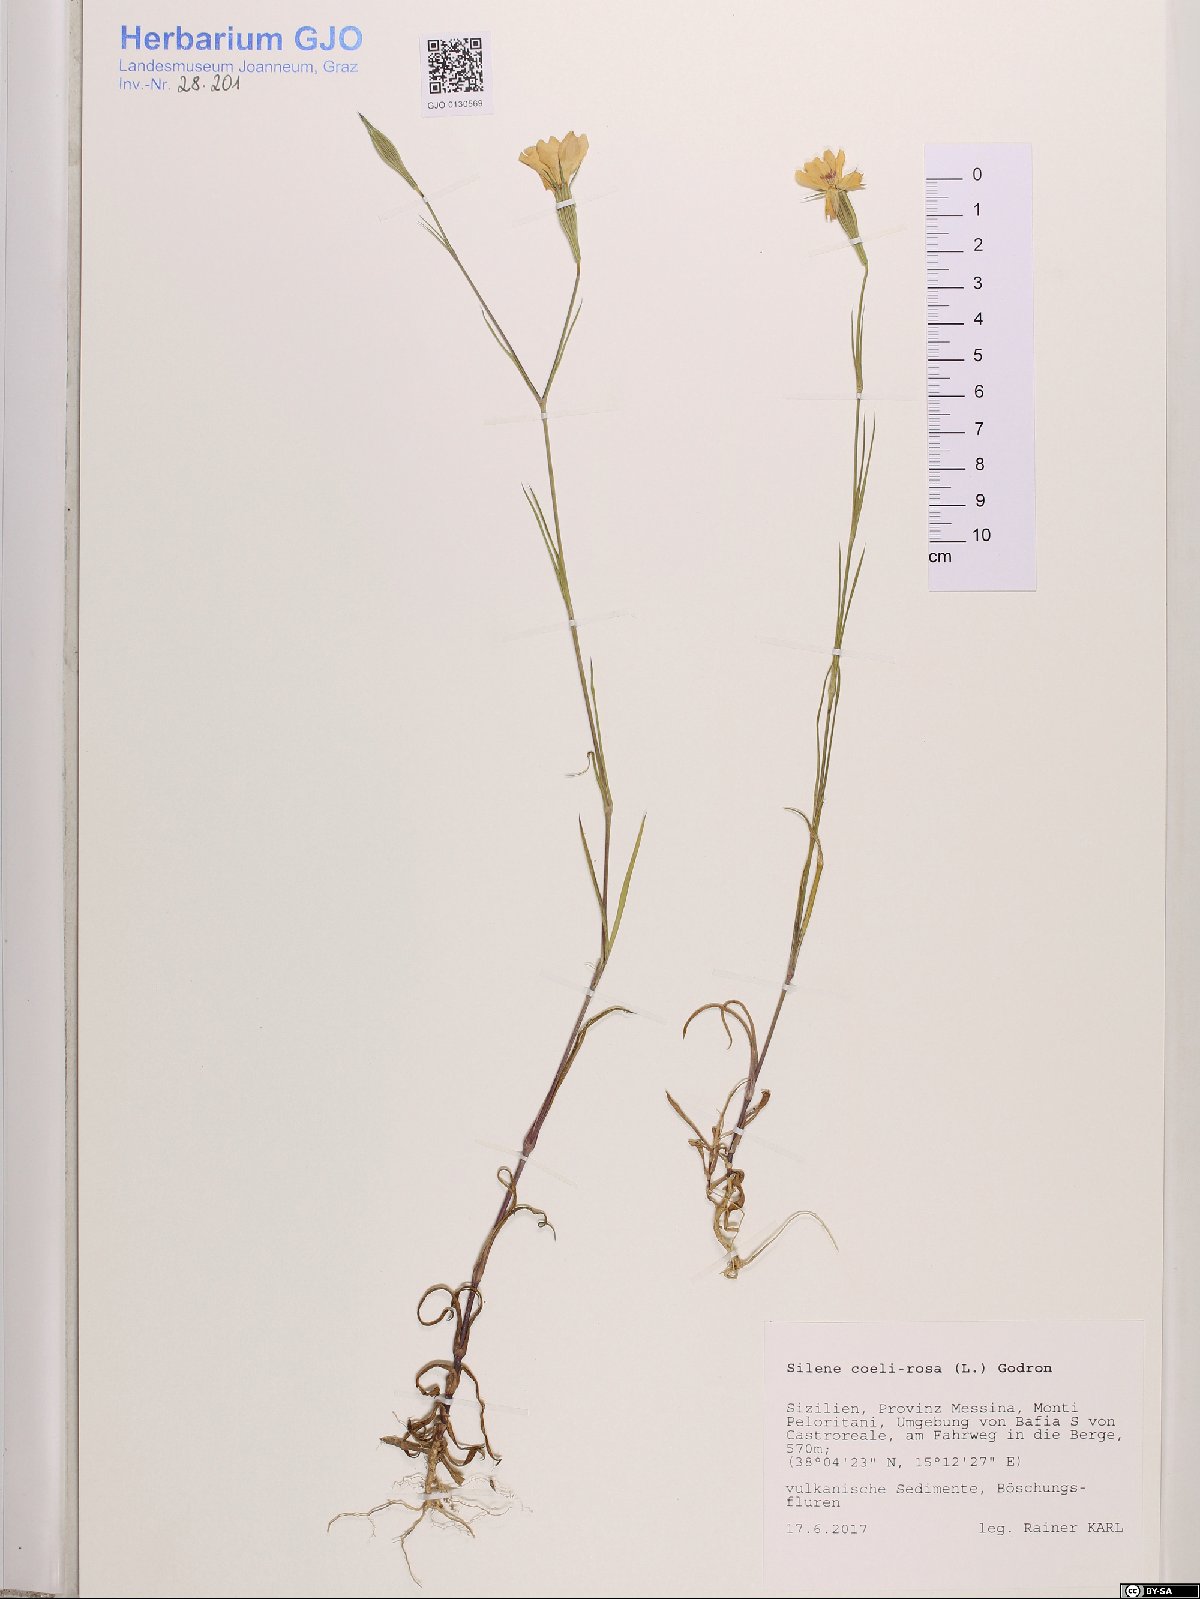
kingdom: Plantae
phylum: Tracheophyta
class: Magnoliopsida
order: Caryophyllales
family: Caryophyllaceae
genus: Eudianthe
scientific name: Eudianthe coeli-rosa
